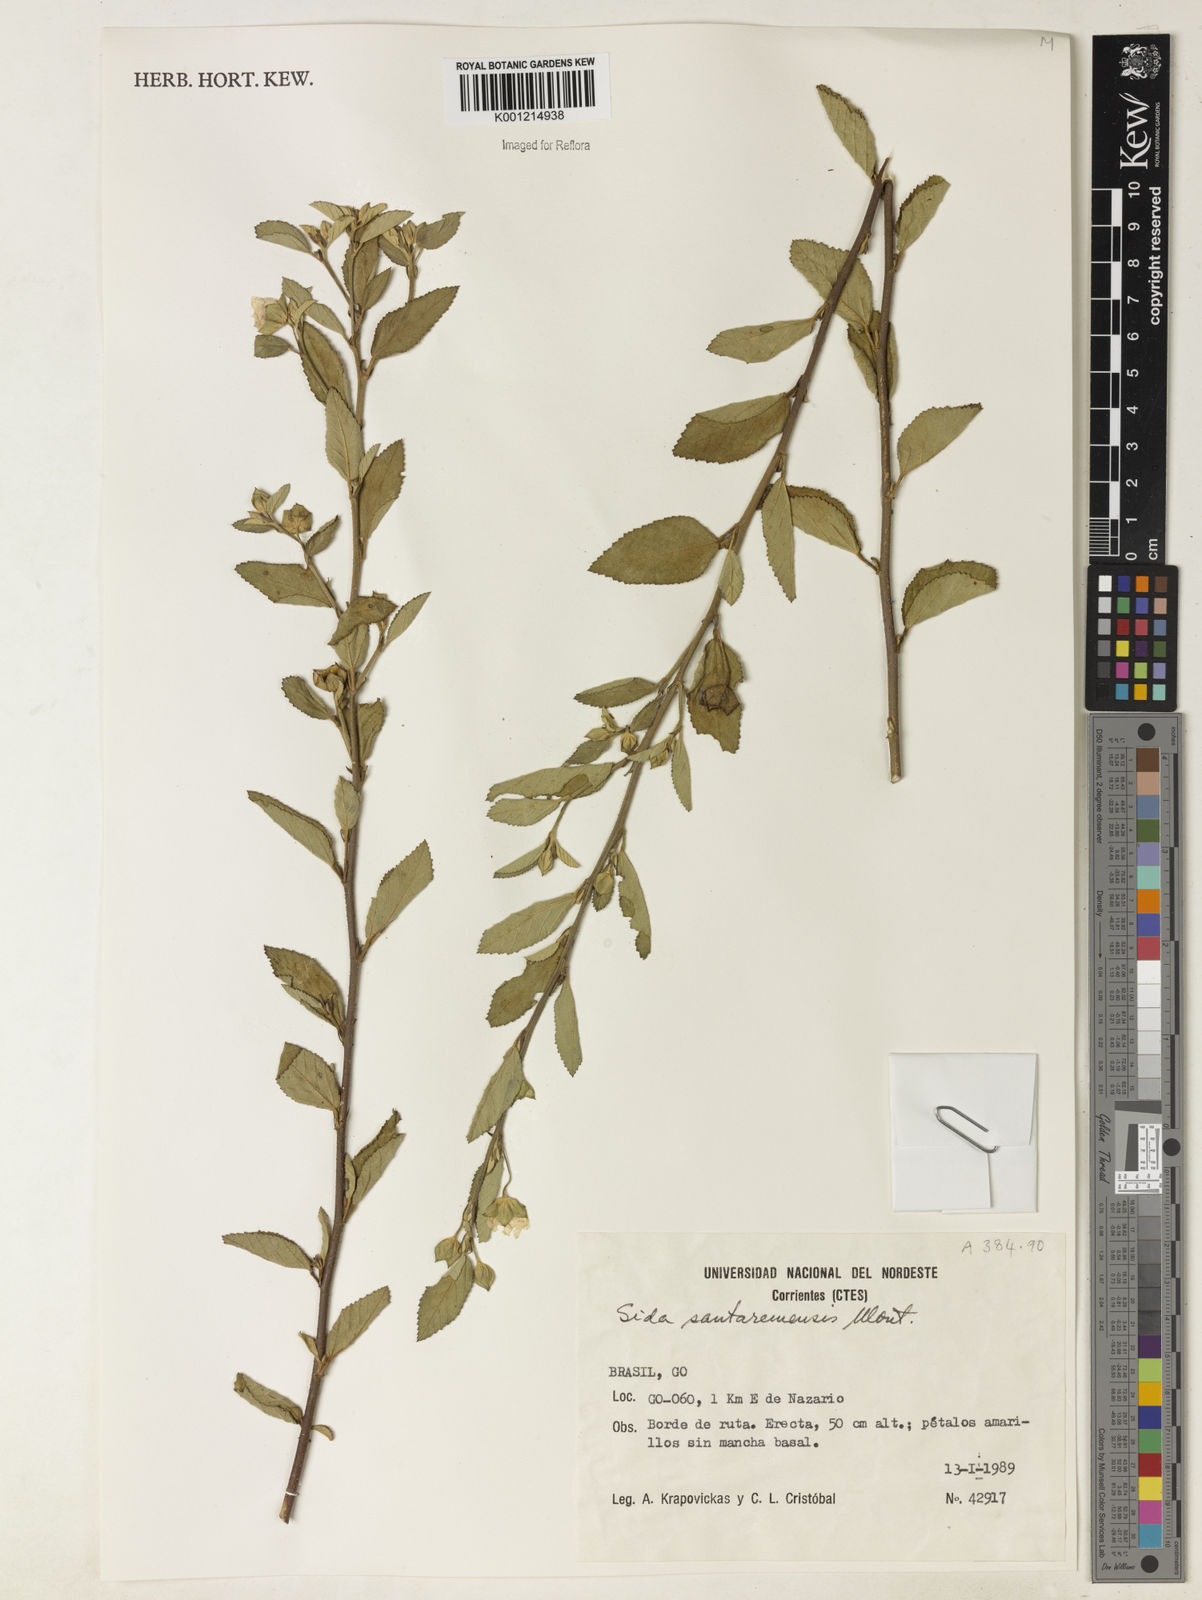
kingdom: Plantae
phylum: Tracheophyta
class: Magnoliopsida
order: Malvales
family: Malvaceae
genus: Sida
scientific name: Sida santaremensis
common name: Moth fanpetals
